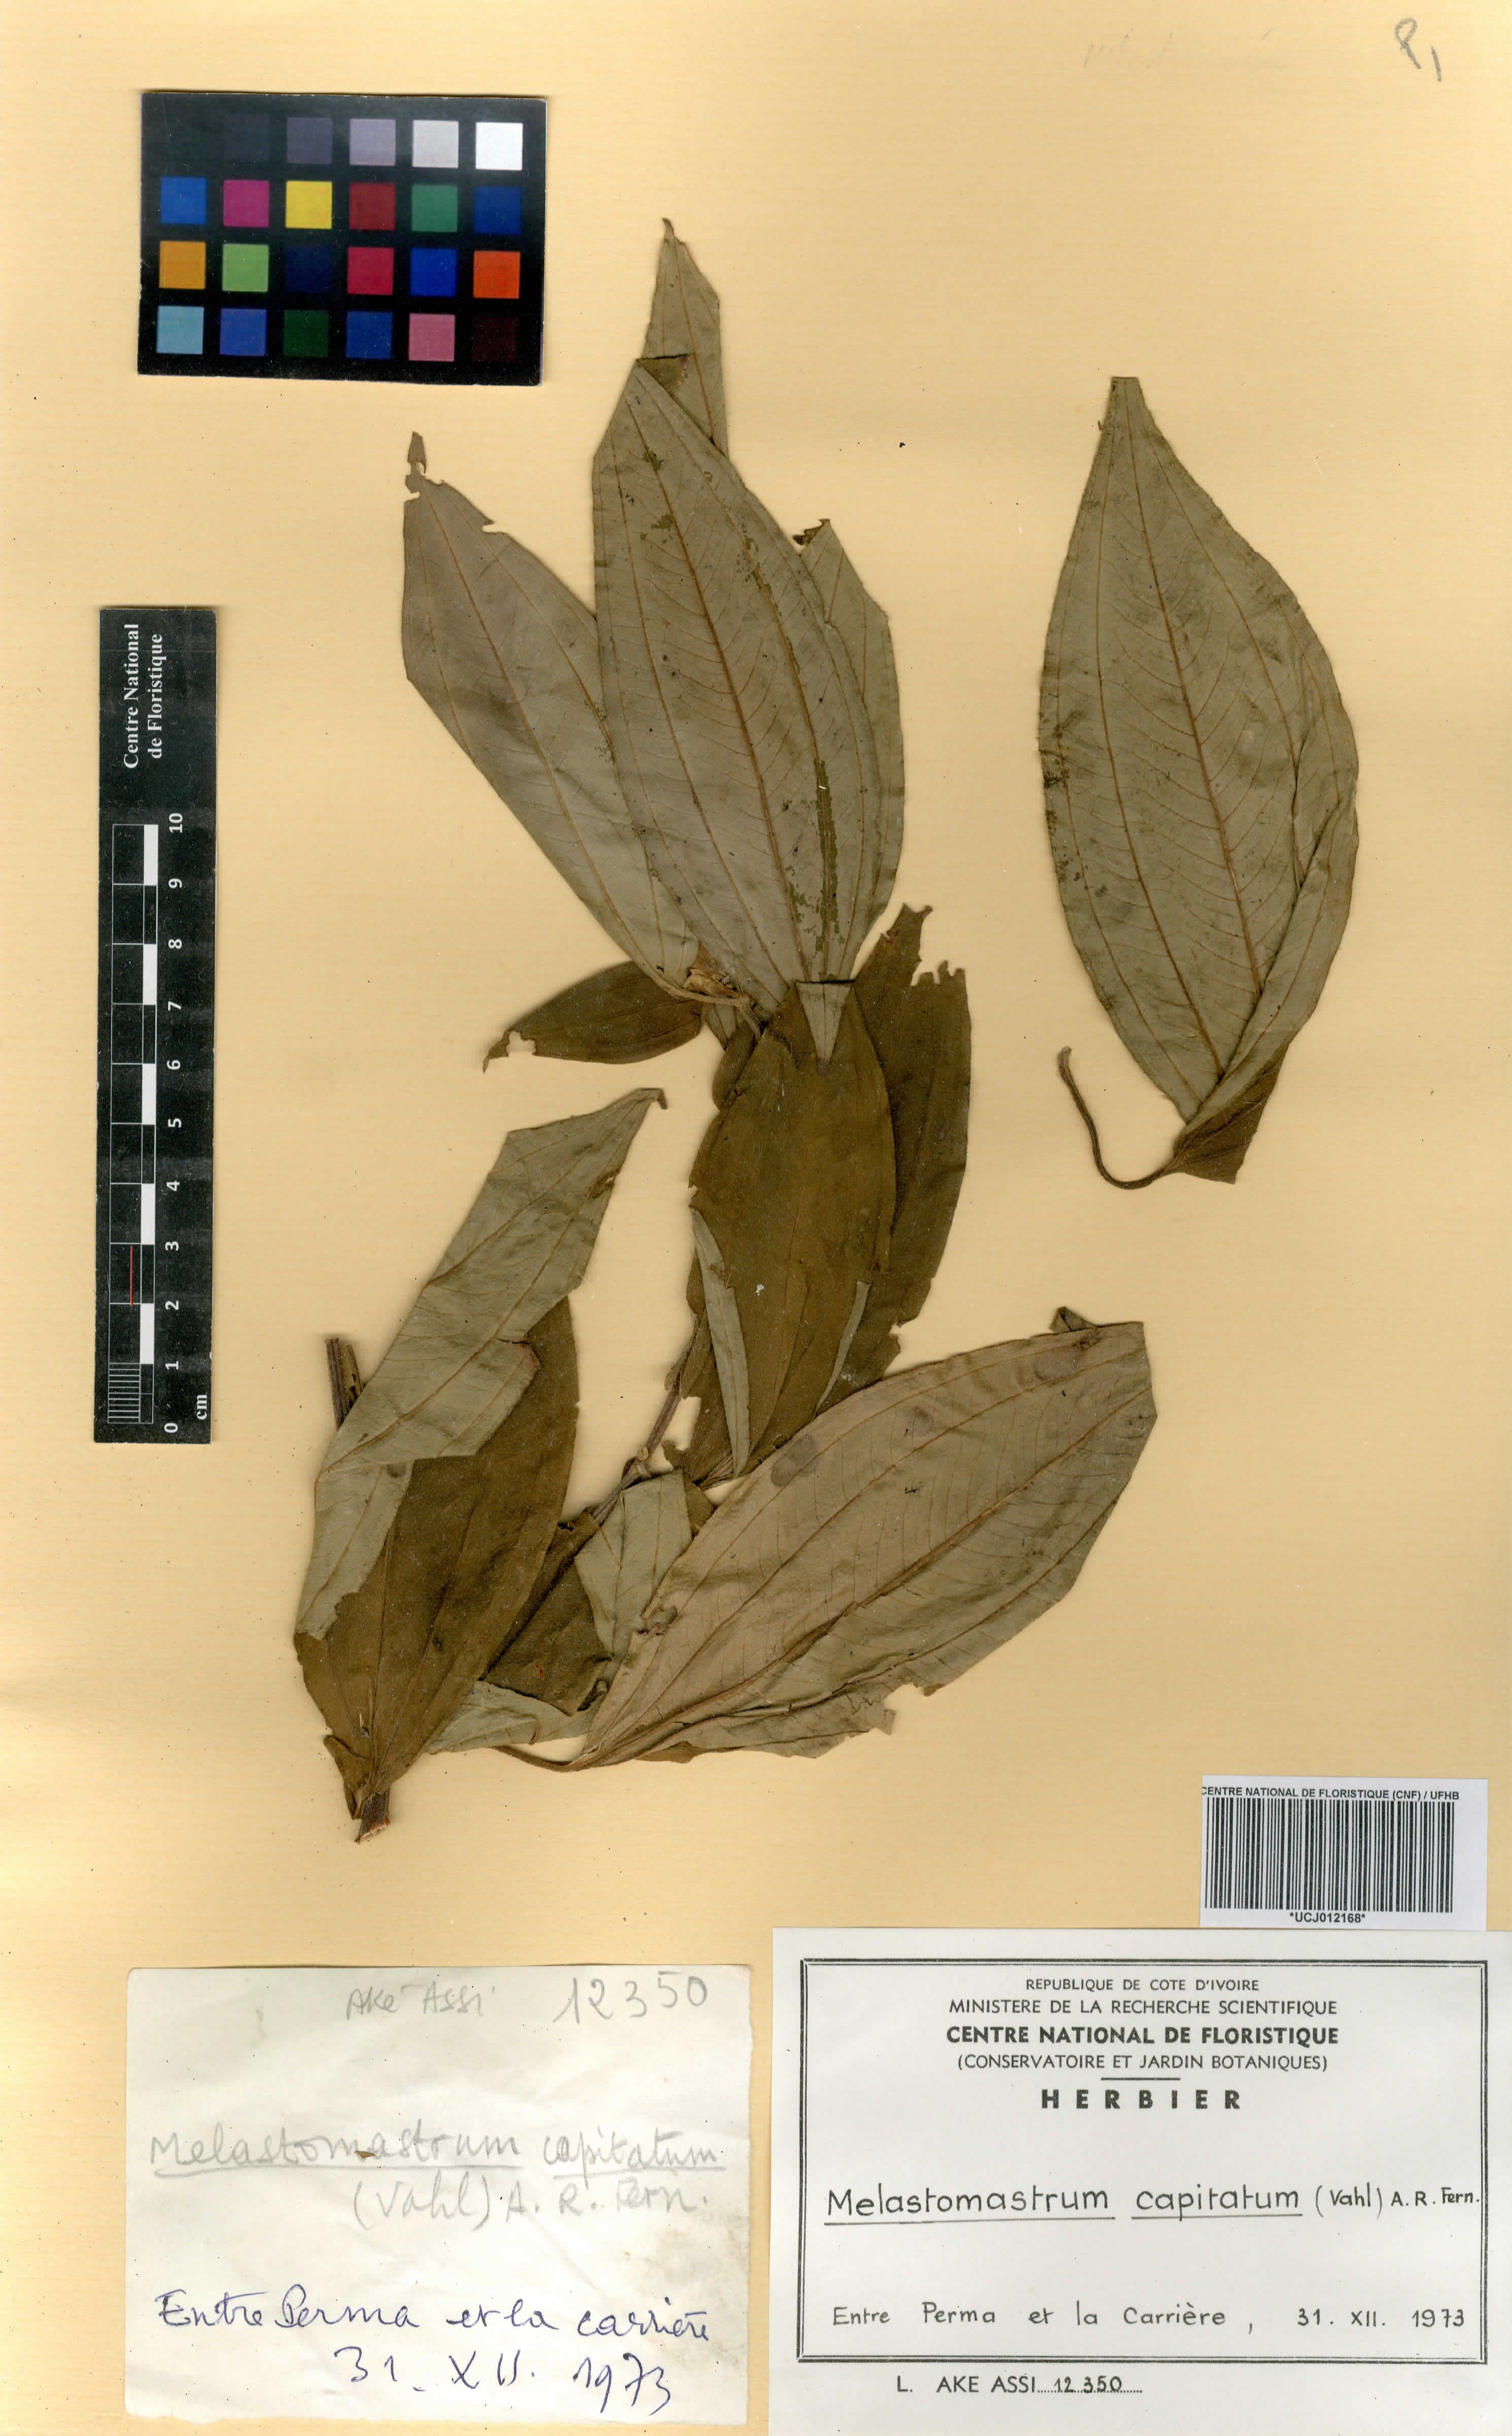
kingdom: Plantae
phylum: Tracheophyta
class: Magnoliopsida
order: Myrtales
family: Melastomataceae
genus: Melastomastrum
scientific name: Melastomastrum capitatum
